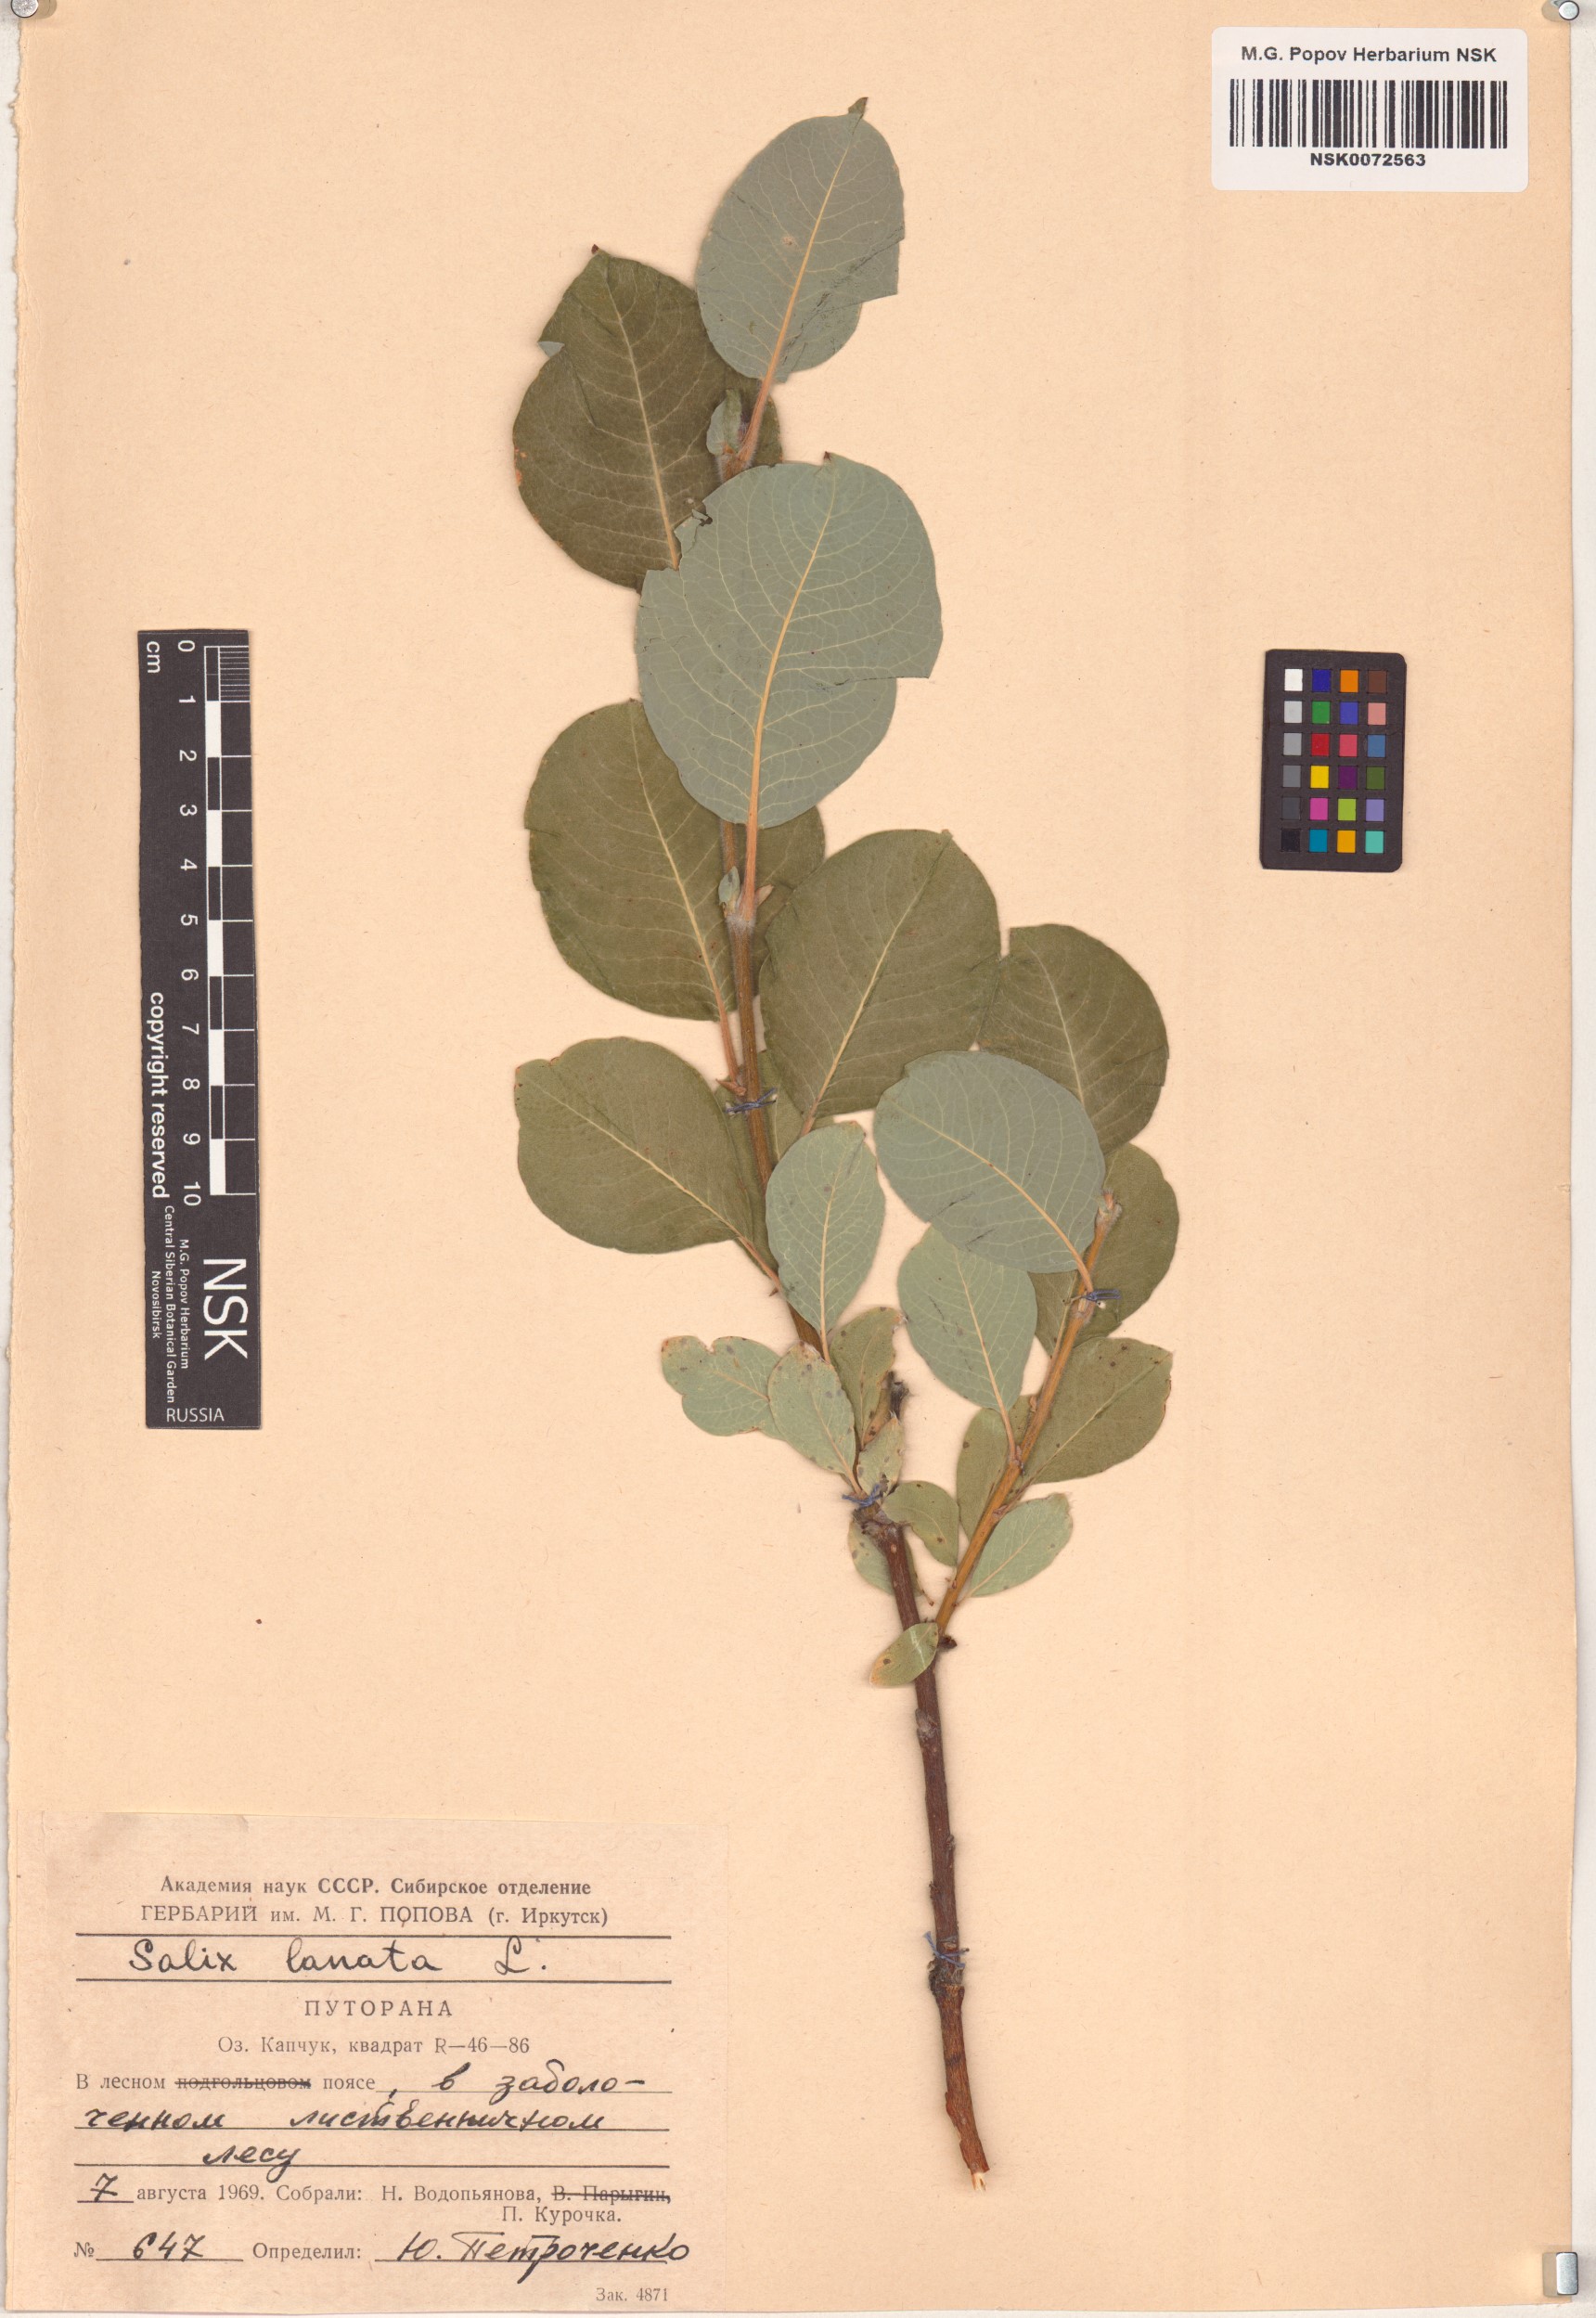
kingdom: Plantae
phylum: Tracheophyta
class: Magnoliopsida
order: Malpighiales
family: Salicaceae
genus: Salix
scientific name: Salix lanata
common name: Woolly willow
